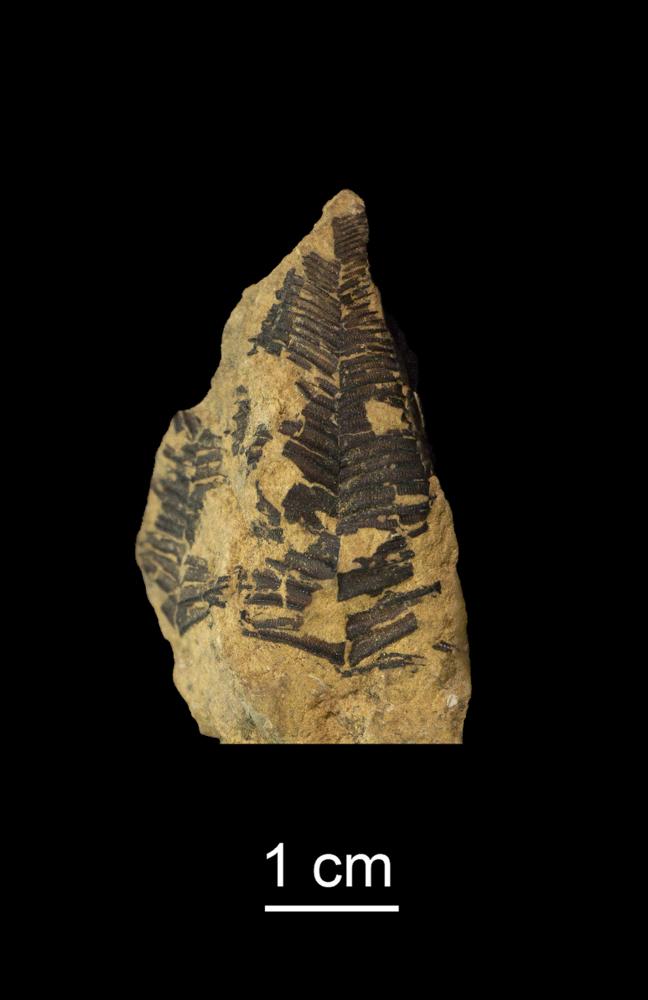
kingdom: Animalia
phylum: Cnidaria
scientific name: Cnidaria
